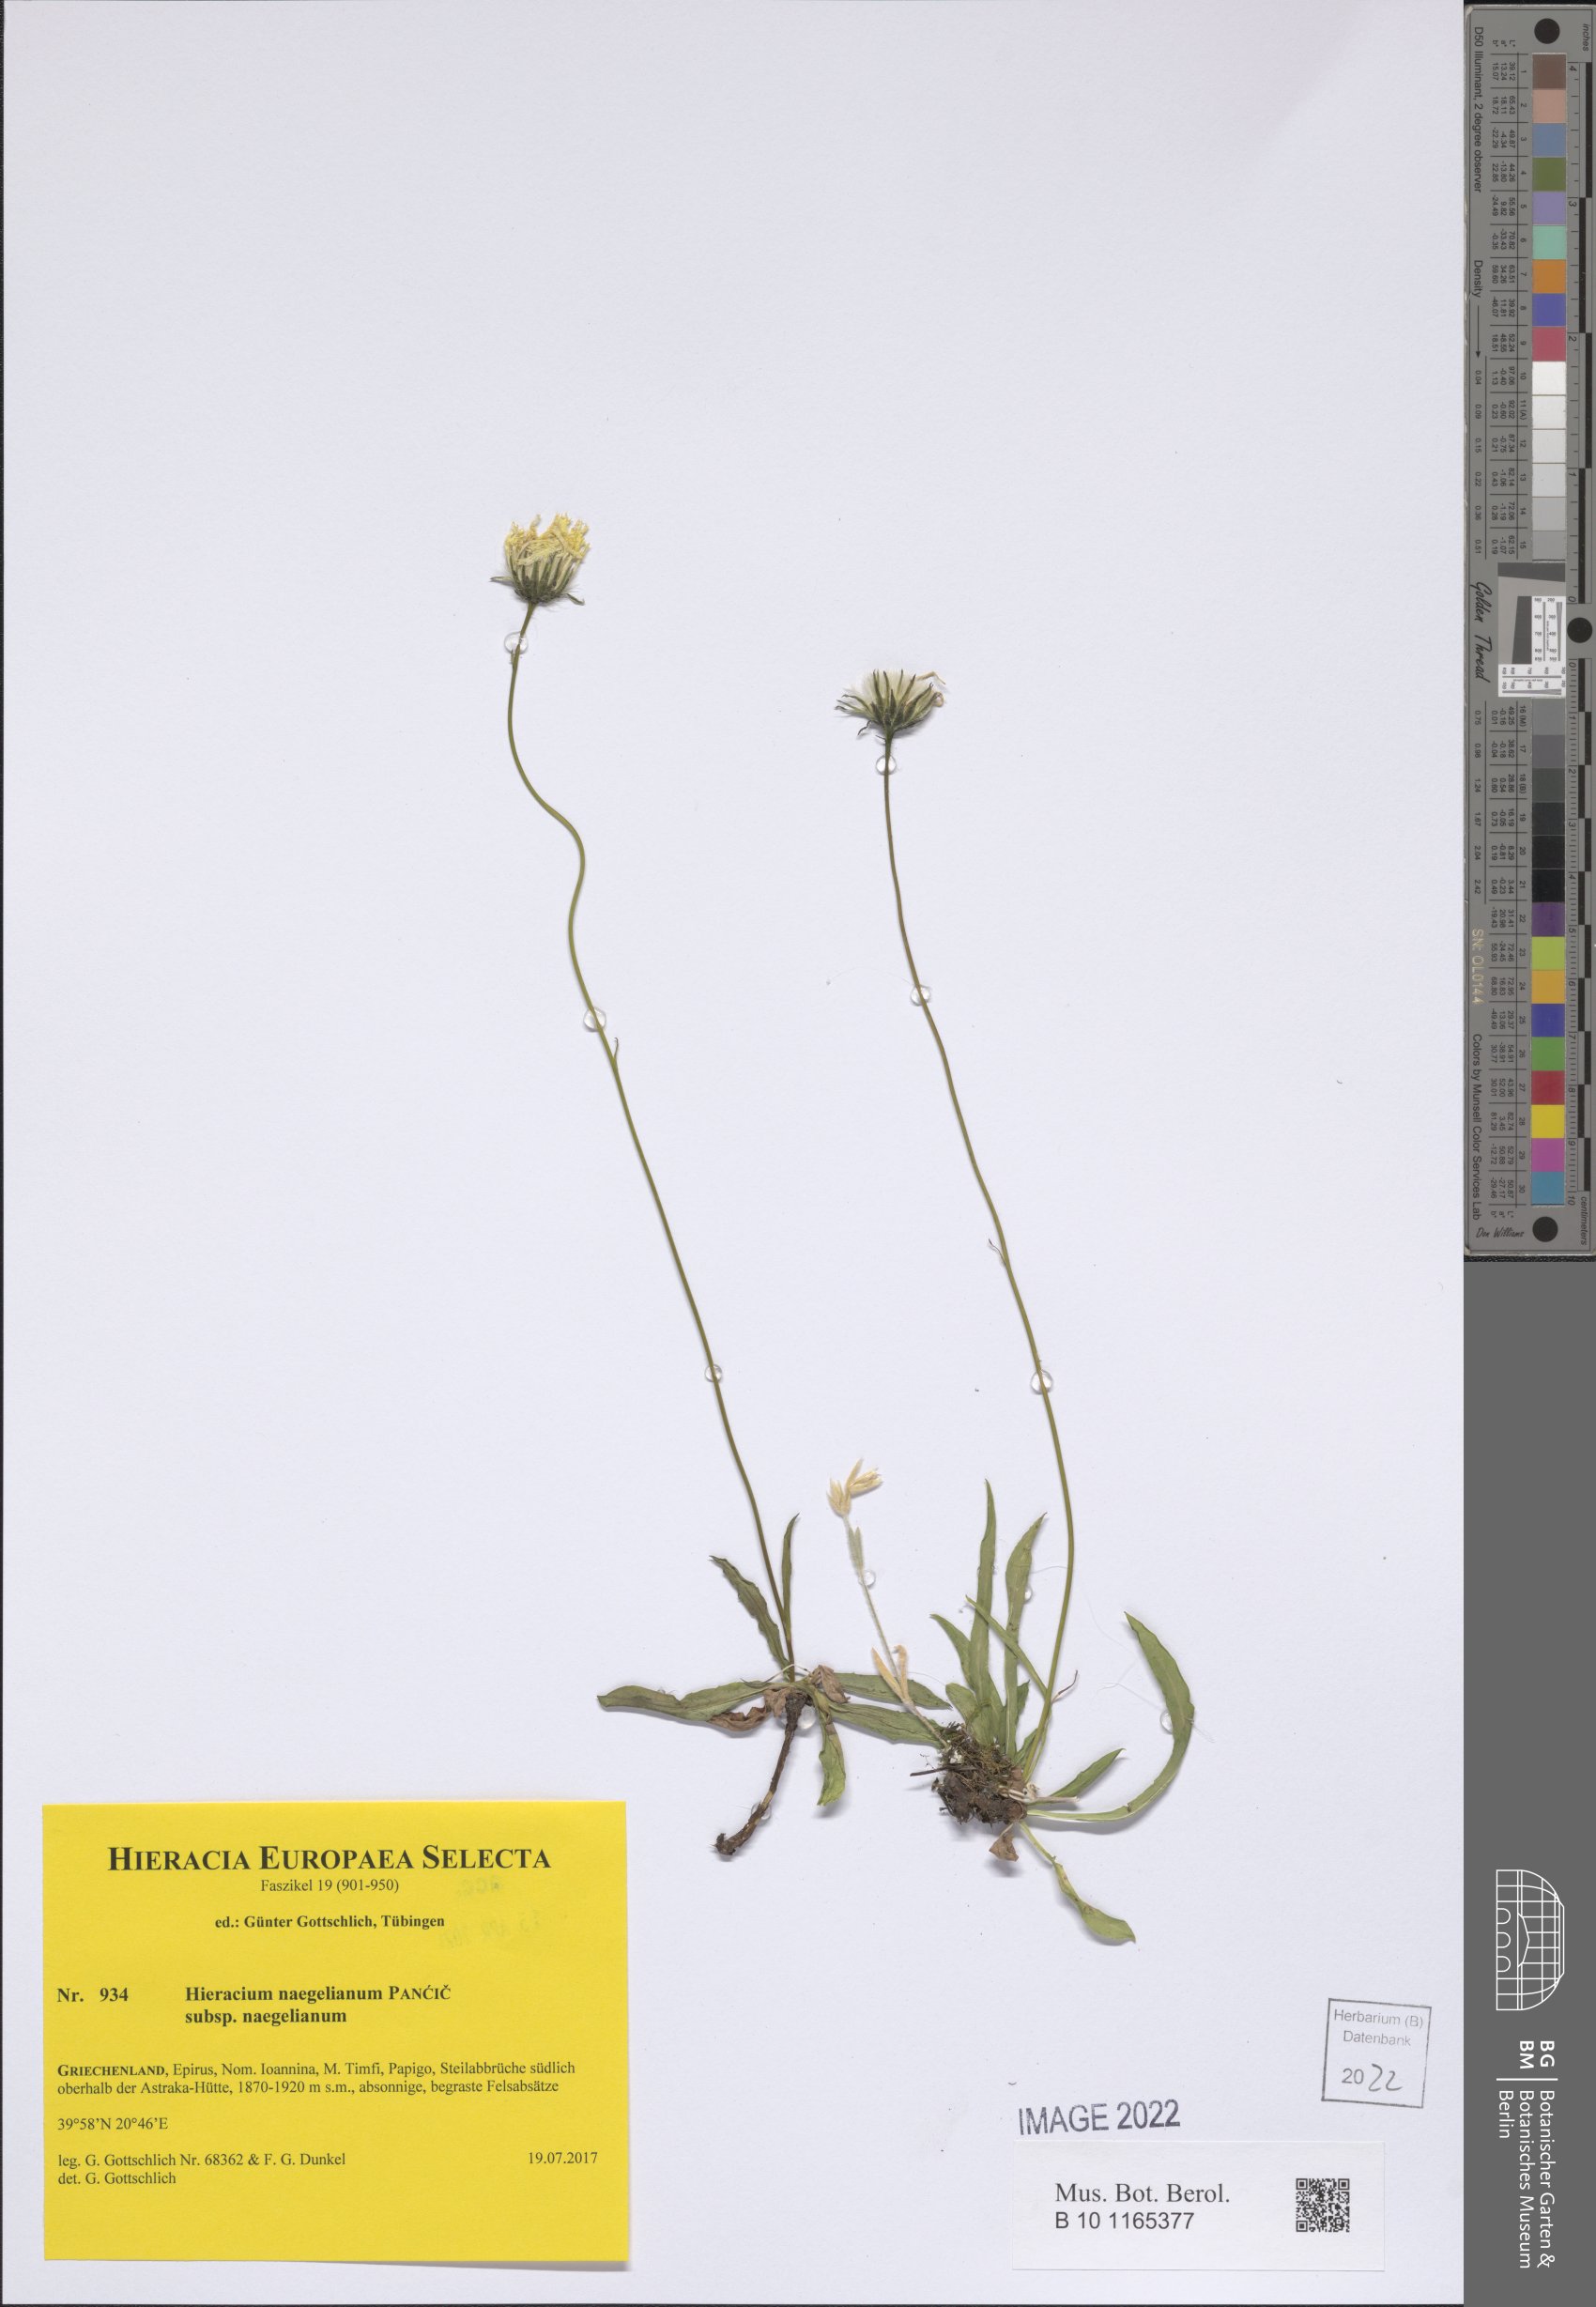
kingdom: Plantae
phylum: Tracheophyta
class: Magnoliopsida
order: Asterales
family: Asteraceae
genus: Hieracium
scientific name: Hieracium naegelianum
